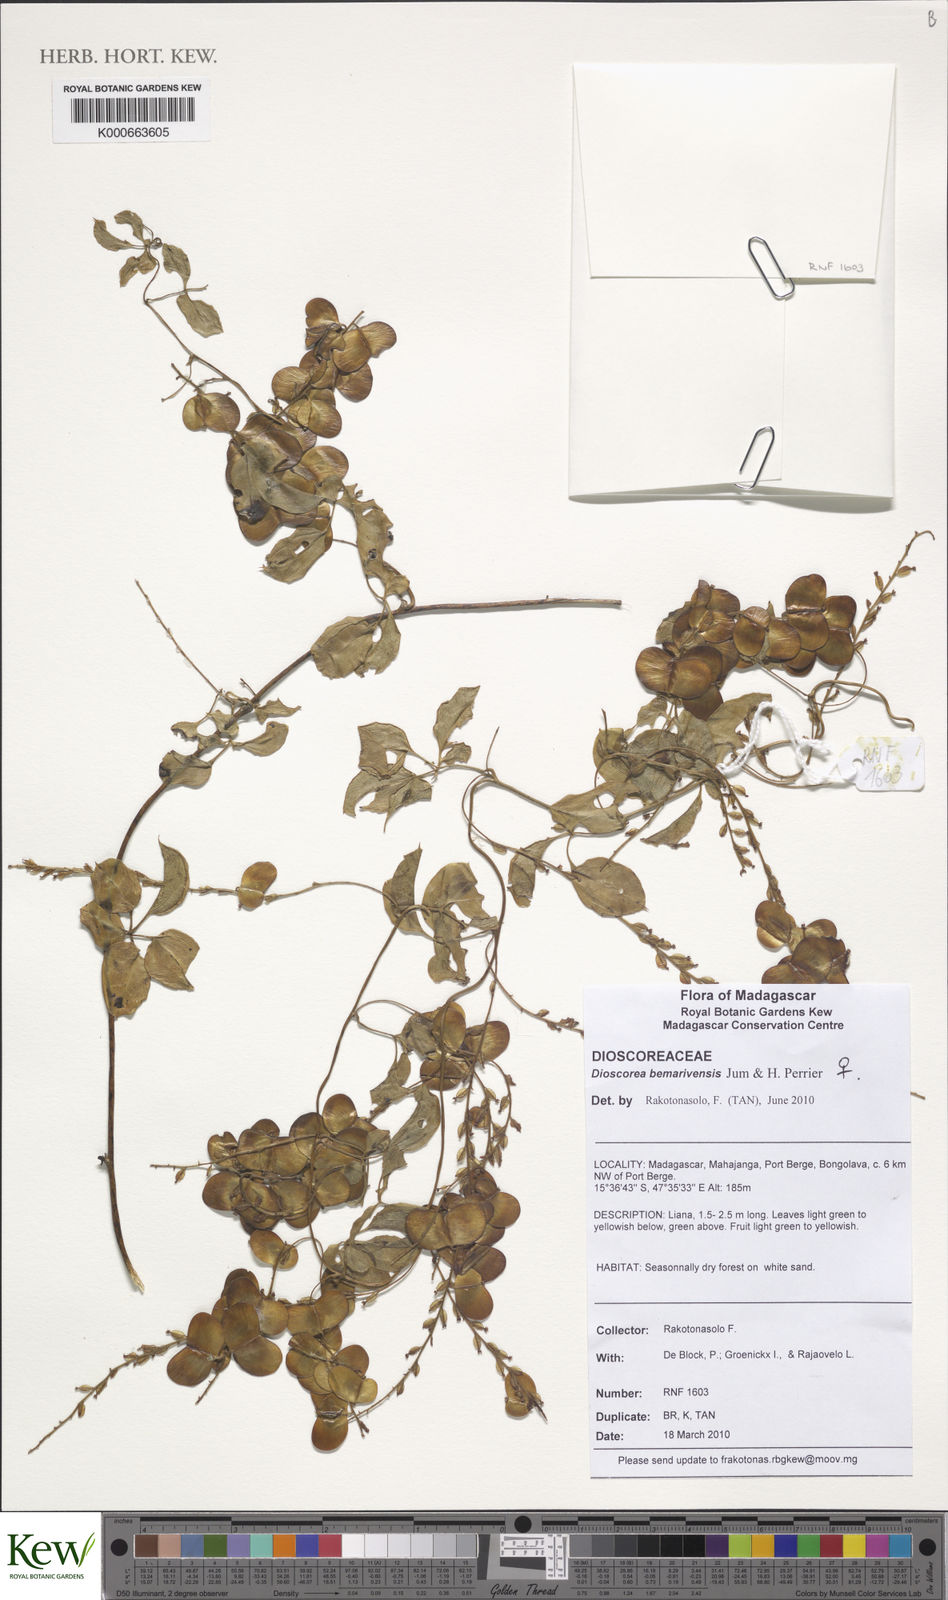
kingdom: Plantae
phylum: Tracheophyta
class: Liliopsida
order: Dioscoreales
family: Dioscoreaceae
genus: Dioscorea
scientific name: Dioscorea bemarivensis
